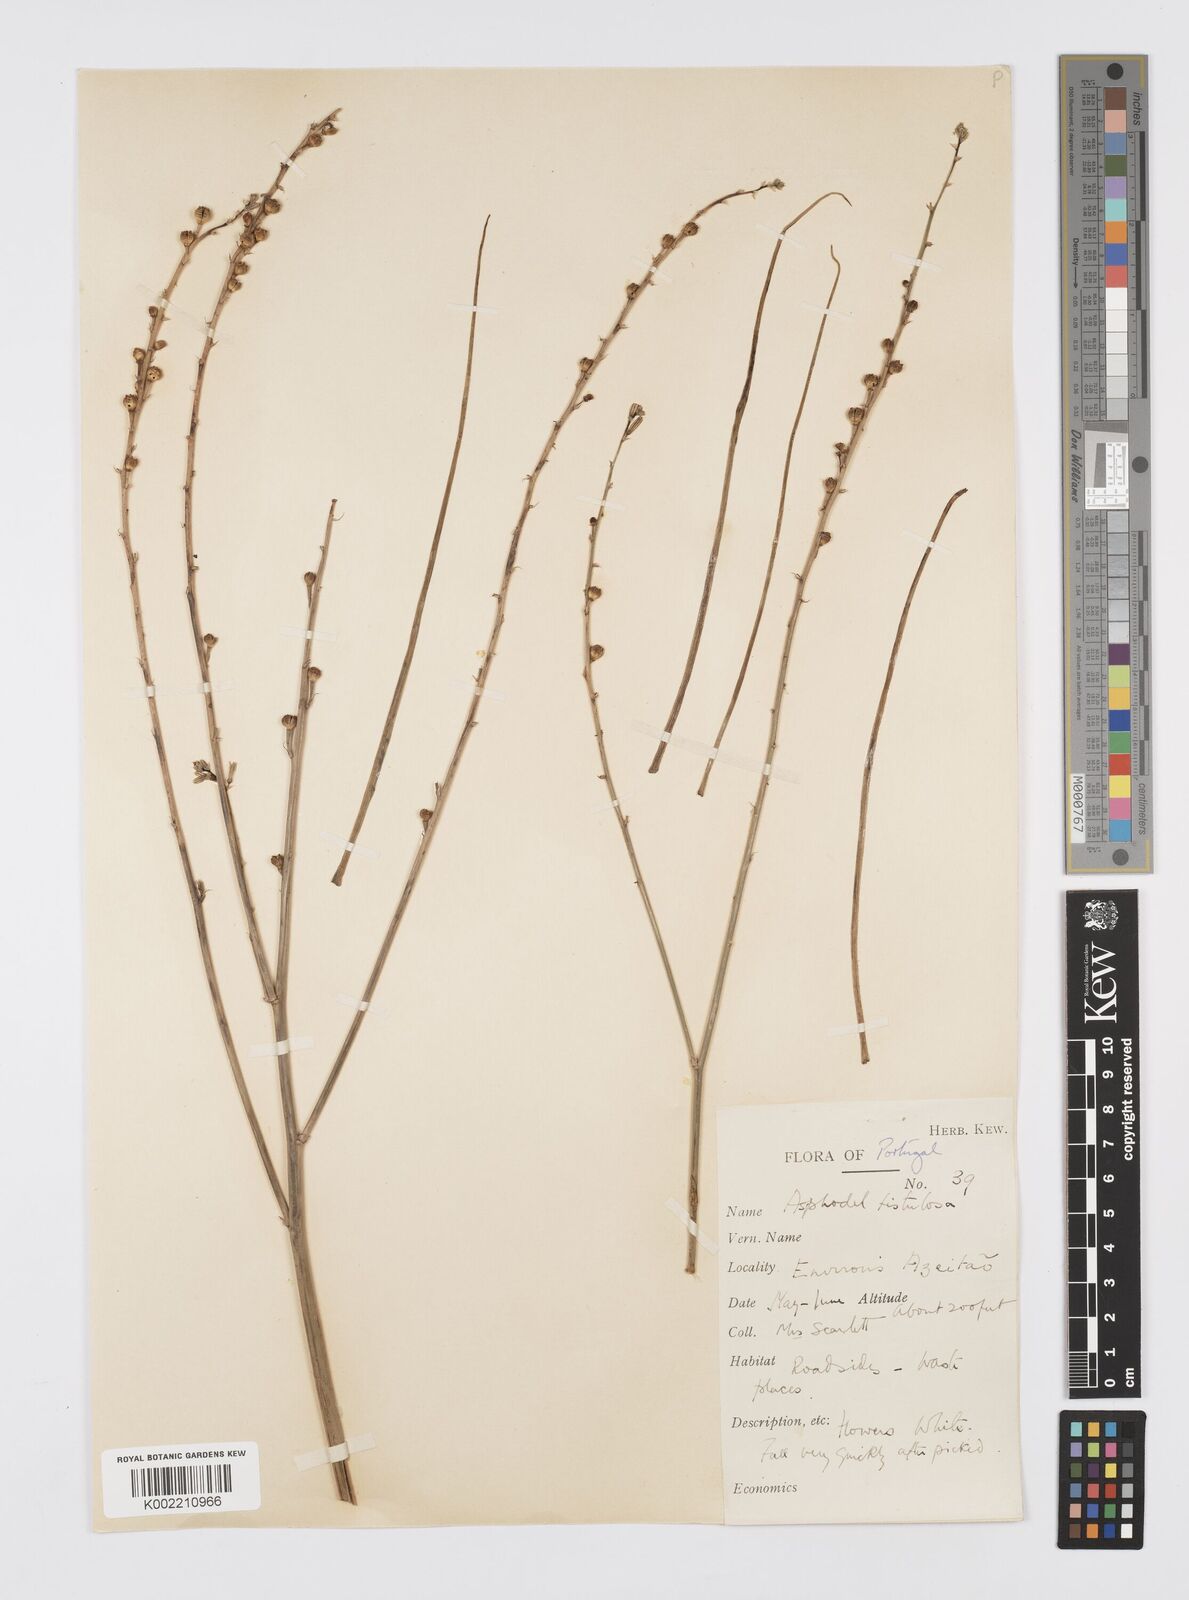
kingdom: Plantae
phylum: Tracheophyta
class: Liliopsida
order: Asparagales
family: Asphodelaceae
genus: Asphodelus
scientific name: Asphodelus fistulosus
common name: Onionweed
